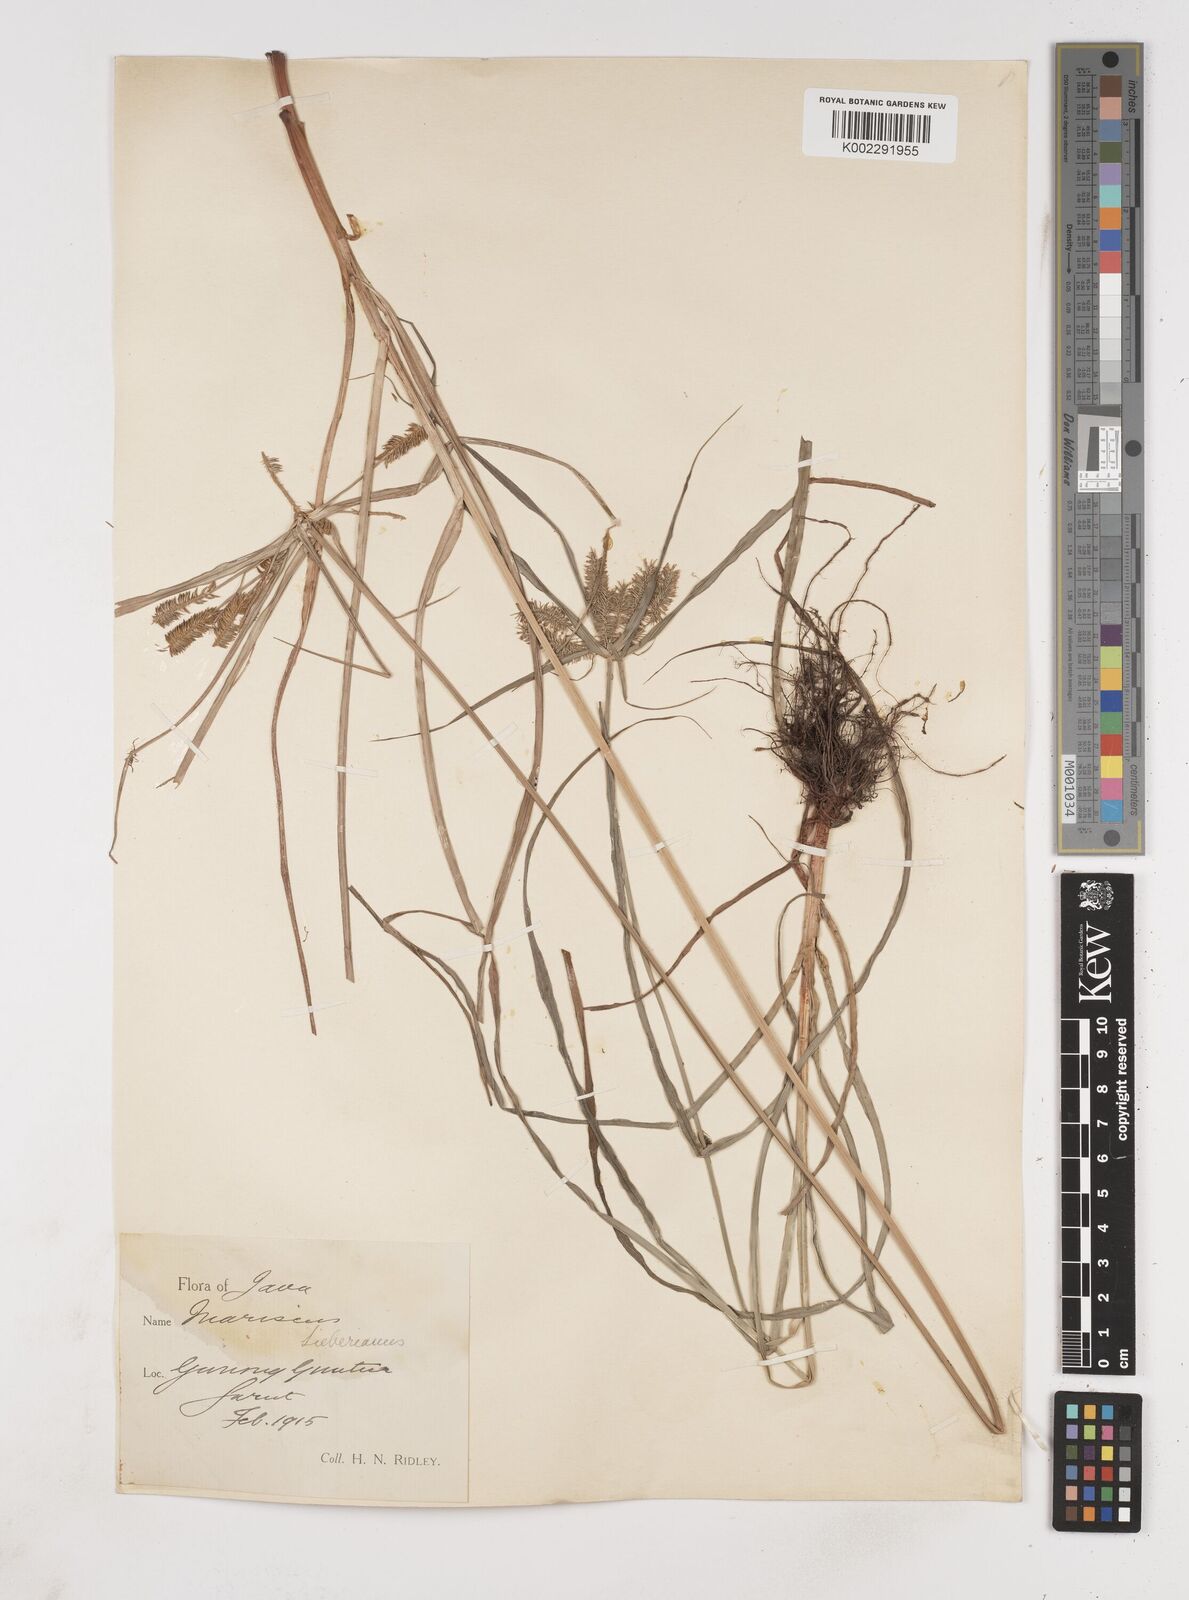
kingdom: Plantae
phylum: Tracheophyta
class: Liliopsida
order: Poales
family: Cyperaceae
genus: Cyperus
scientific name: Cyperus cyperoides
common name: Pacific island flat sedge
